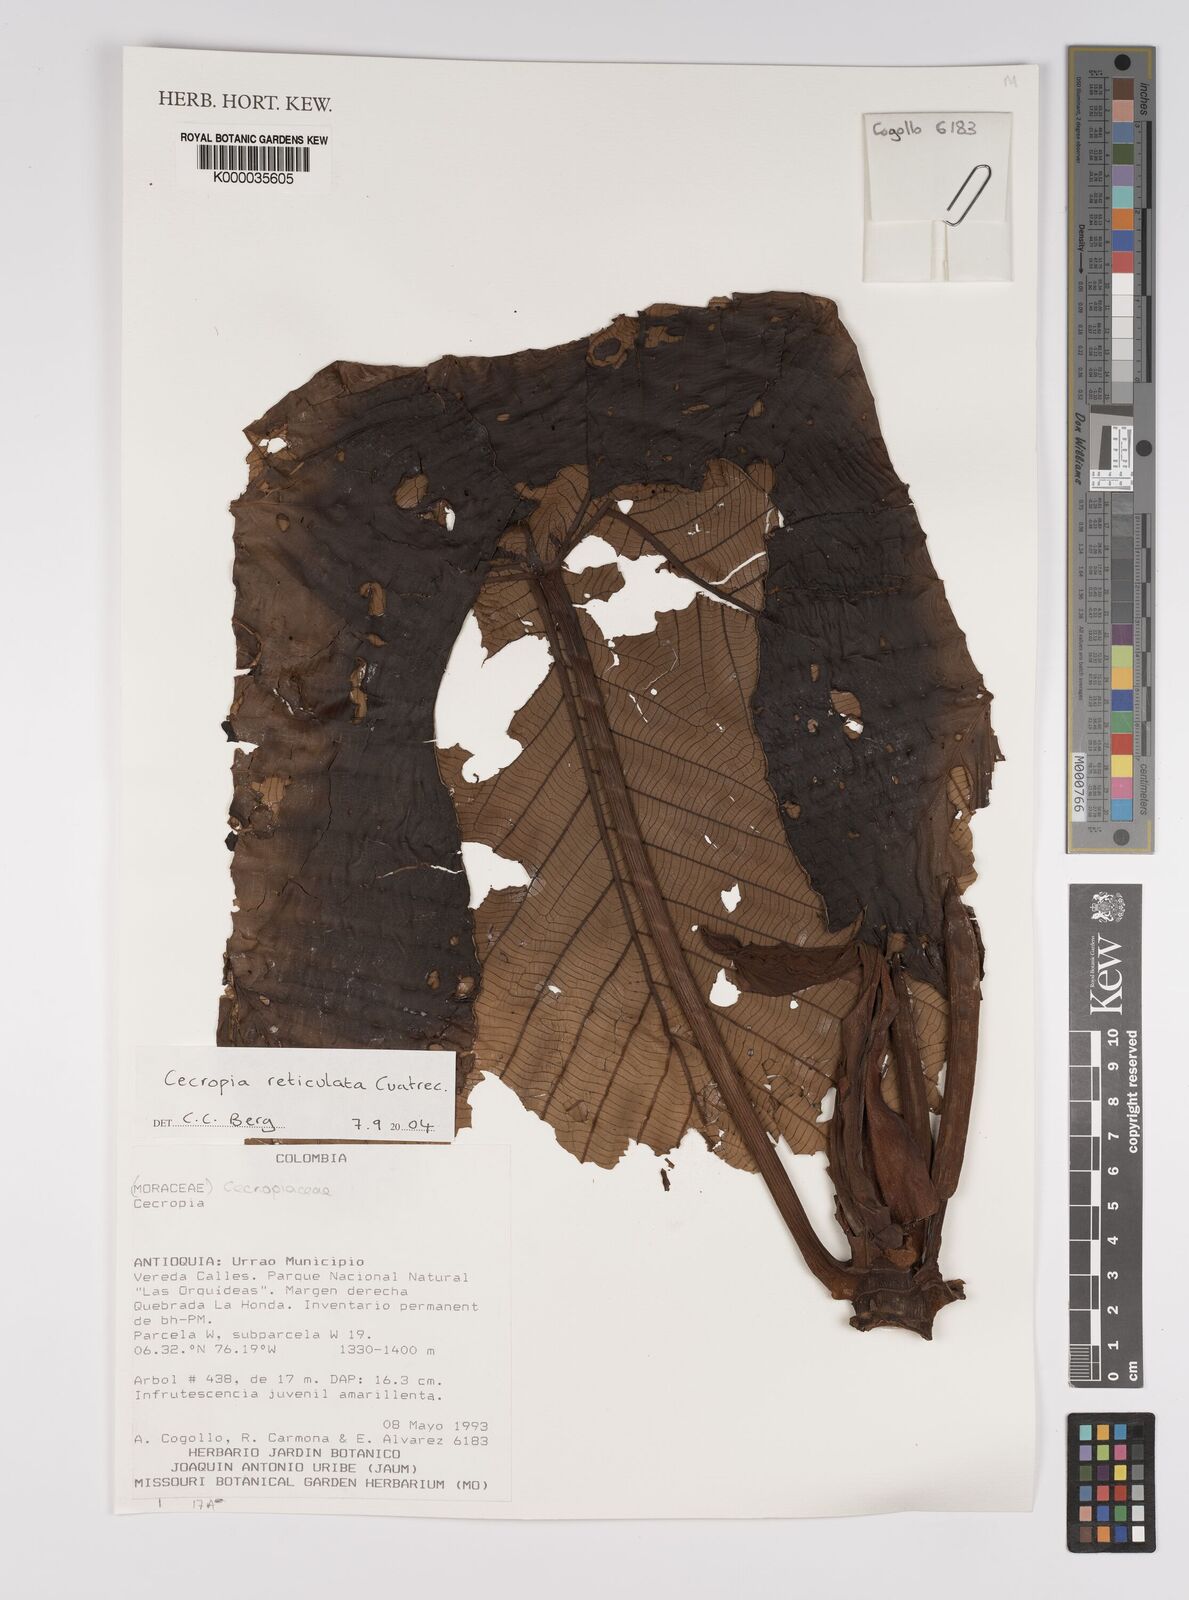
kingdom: Plantae
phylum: Tracheophyta
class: Magnoliopsida
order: Rosales
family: Urticaceae
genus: Cecropia
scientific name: Cecropia reticulata
